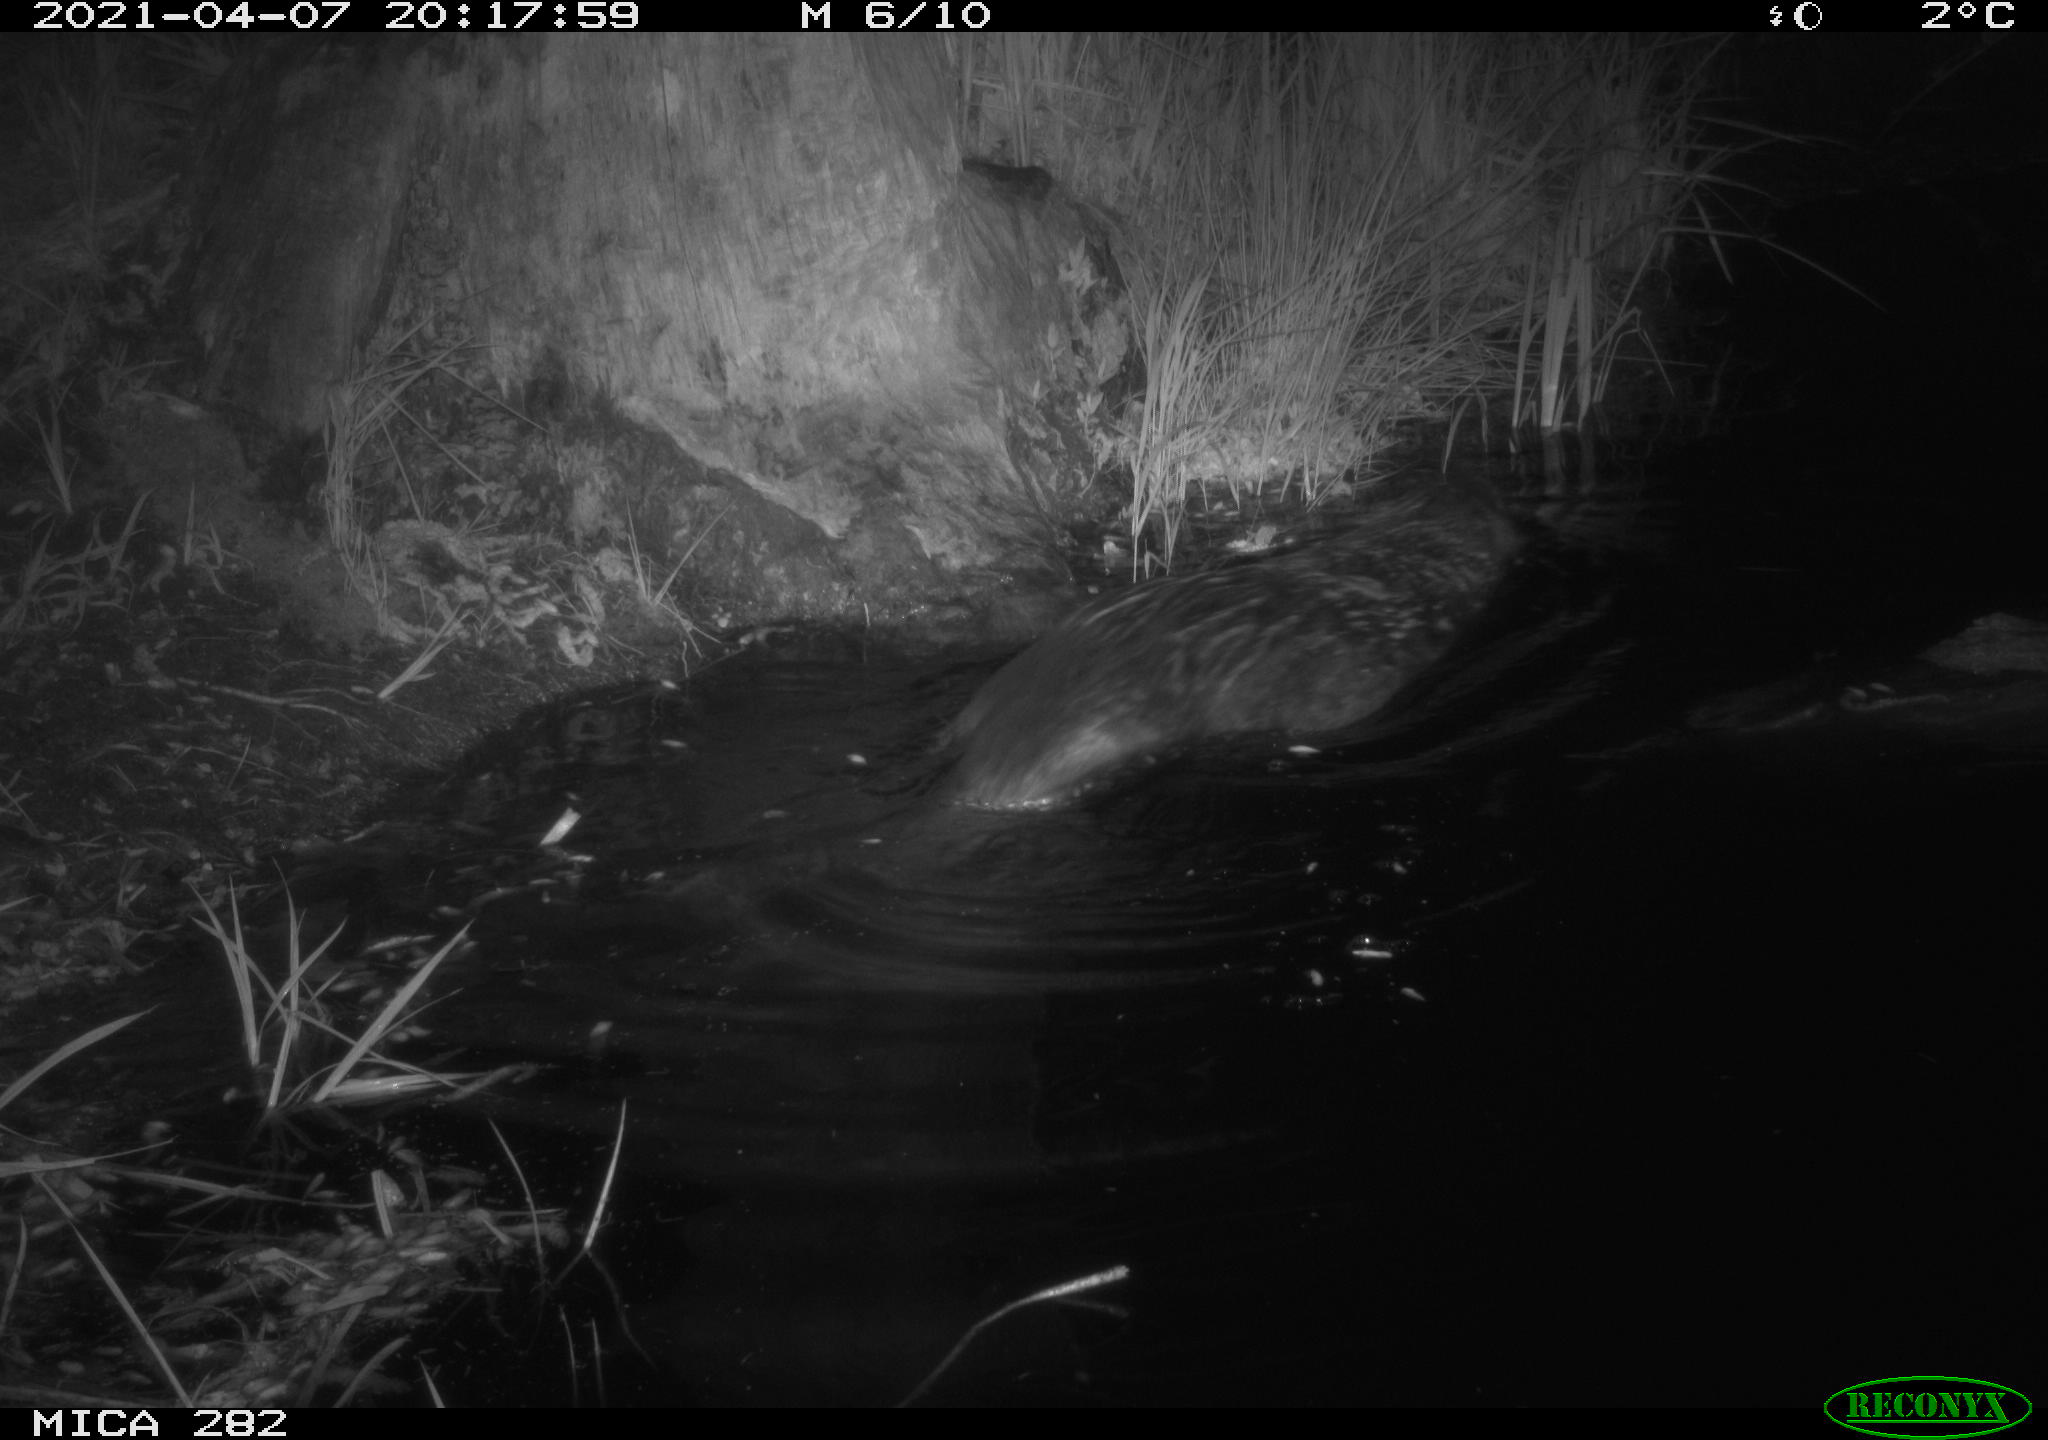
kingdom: Animalia
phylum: Chordata
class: Mammalia
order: Rodentia
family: Castoridae
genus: Castor
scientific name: Castor fiber
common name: Eurasian beaver
